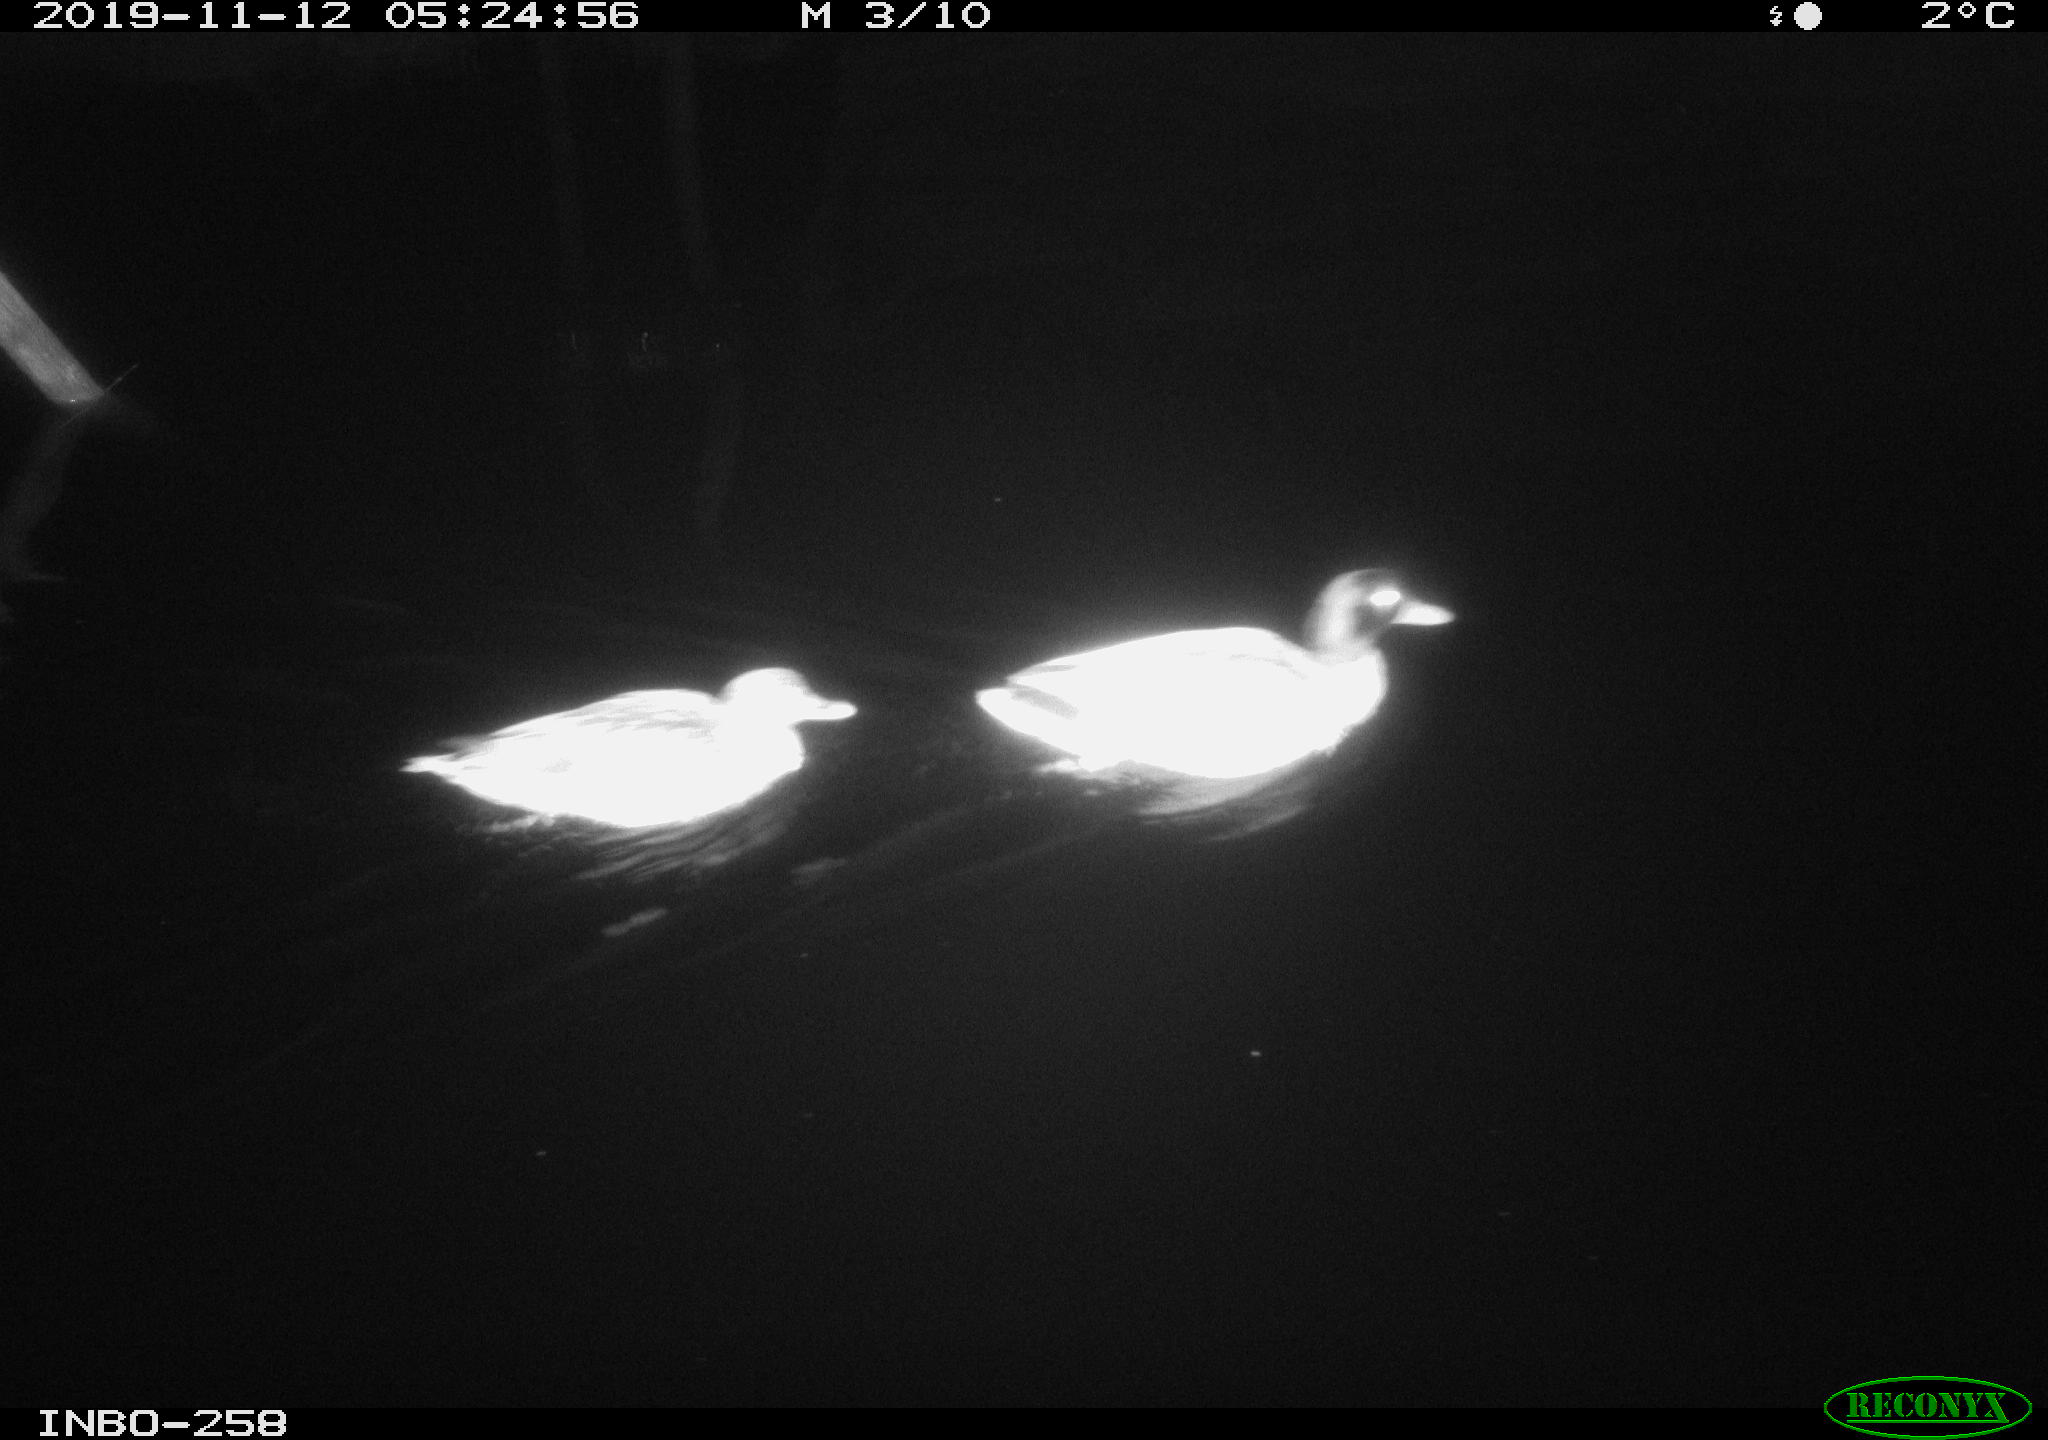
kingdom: Animalia
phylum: Chordata
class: Aves
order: Anseriformes
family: Anatidae
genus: Anas
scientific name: Anas platyrhynchos
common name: Mallard
